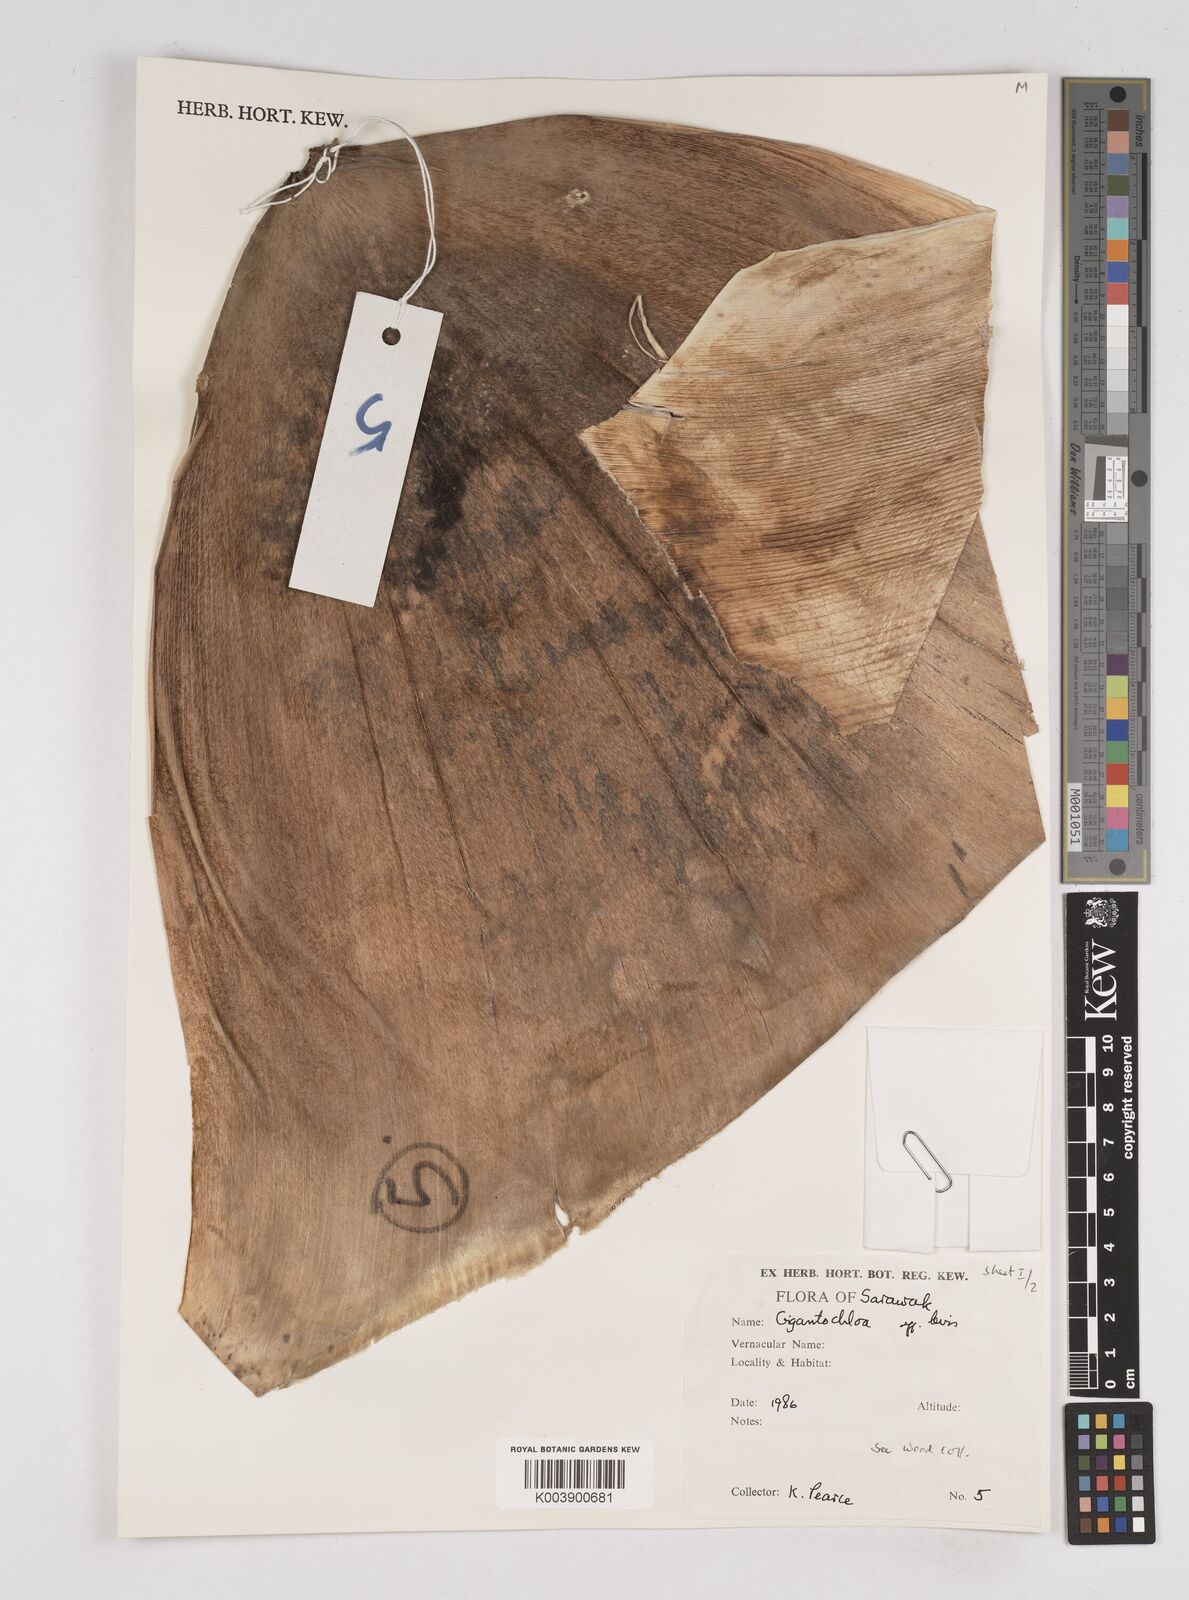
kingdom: Plantae
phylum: Tracheophyta
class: Liliopsida
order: Poales
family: Poaceae
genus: Gigantochloa
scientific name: Gigantochloa
